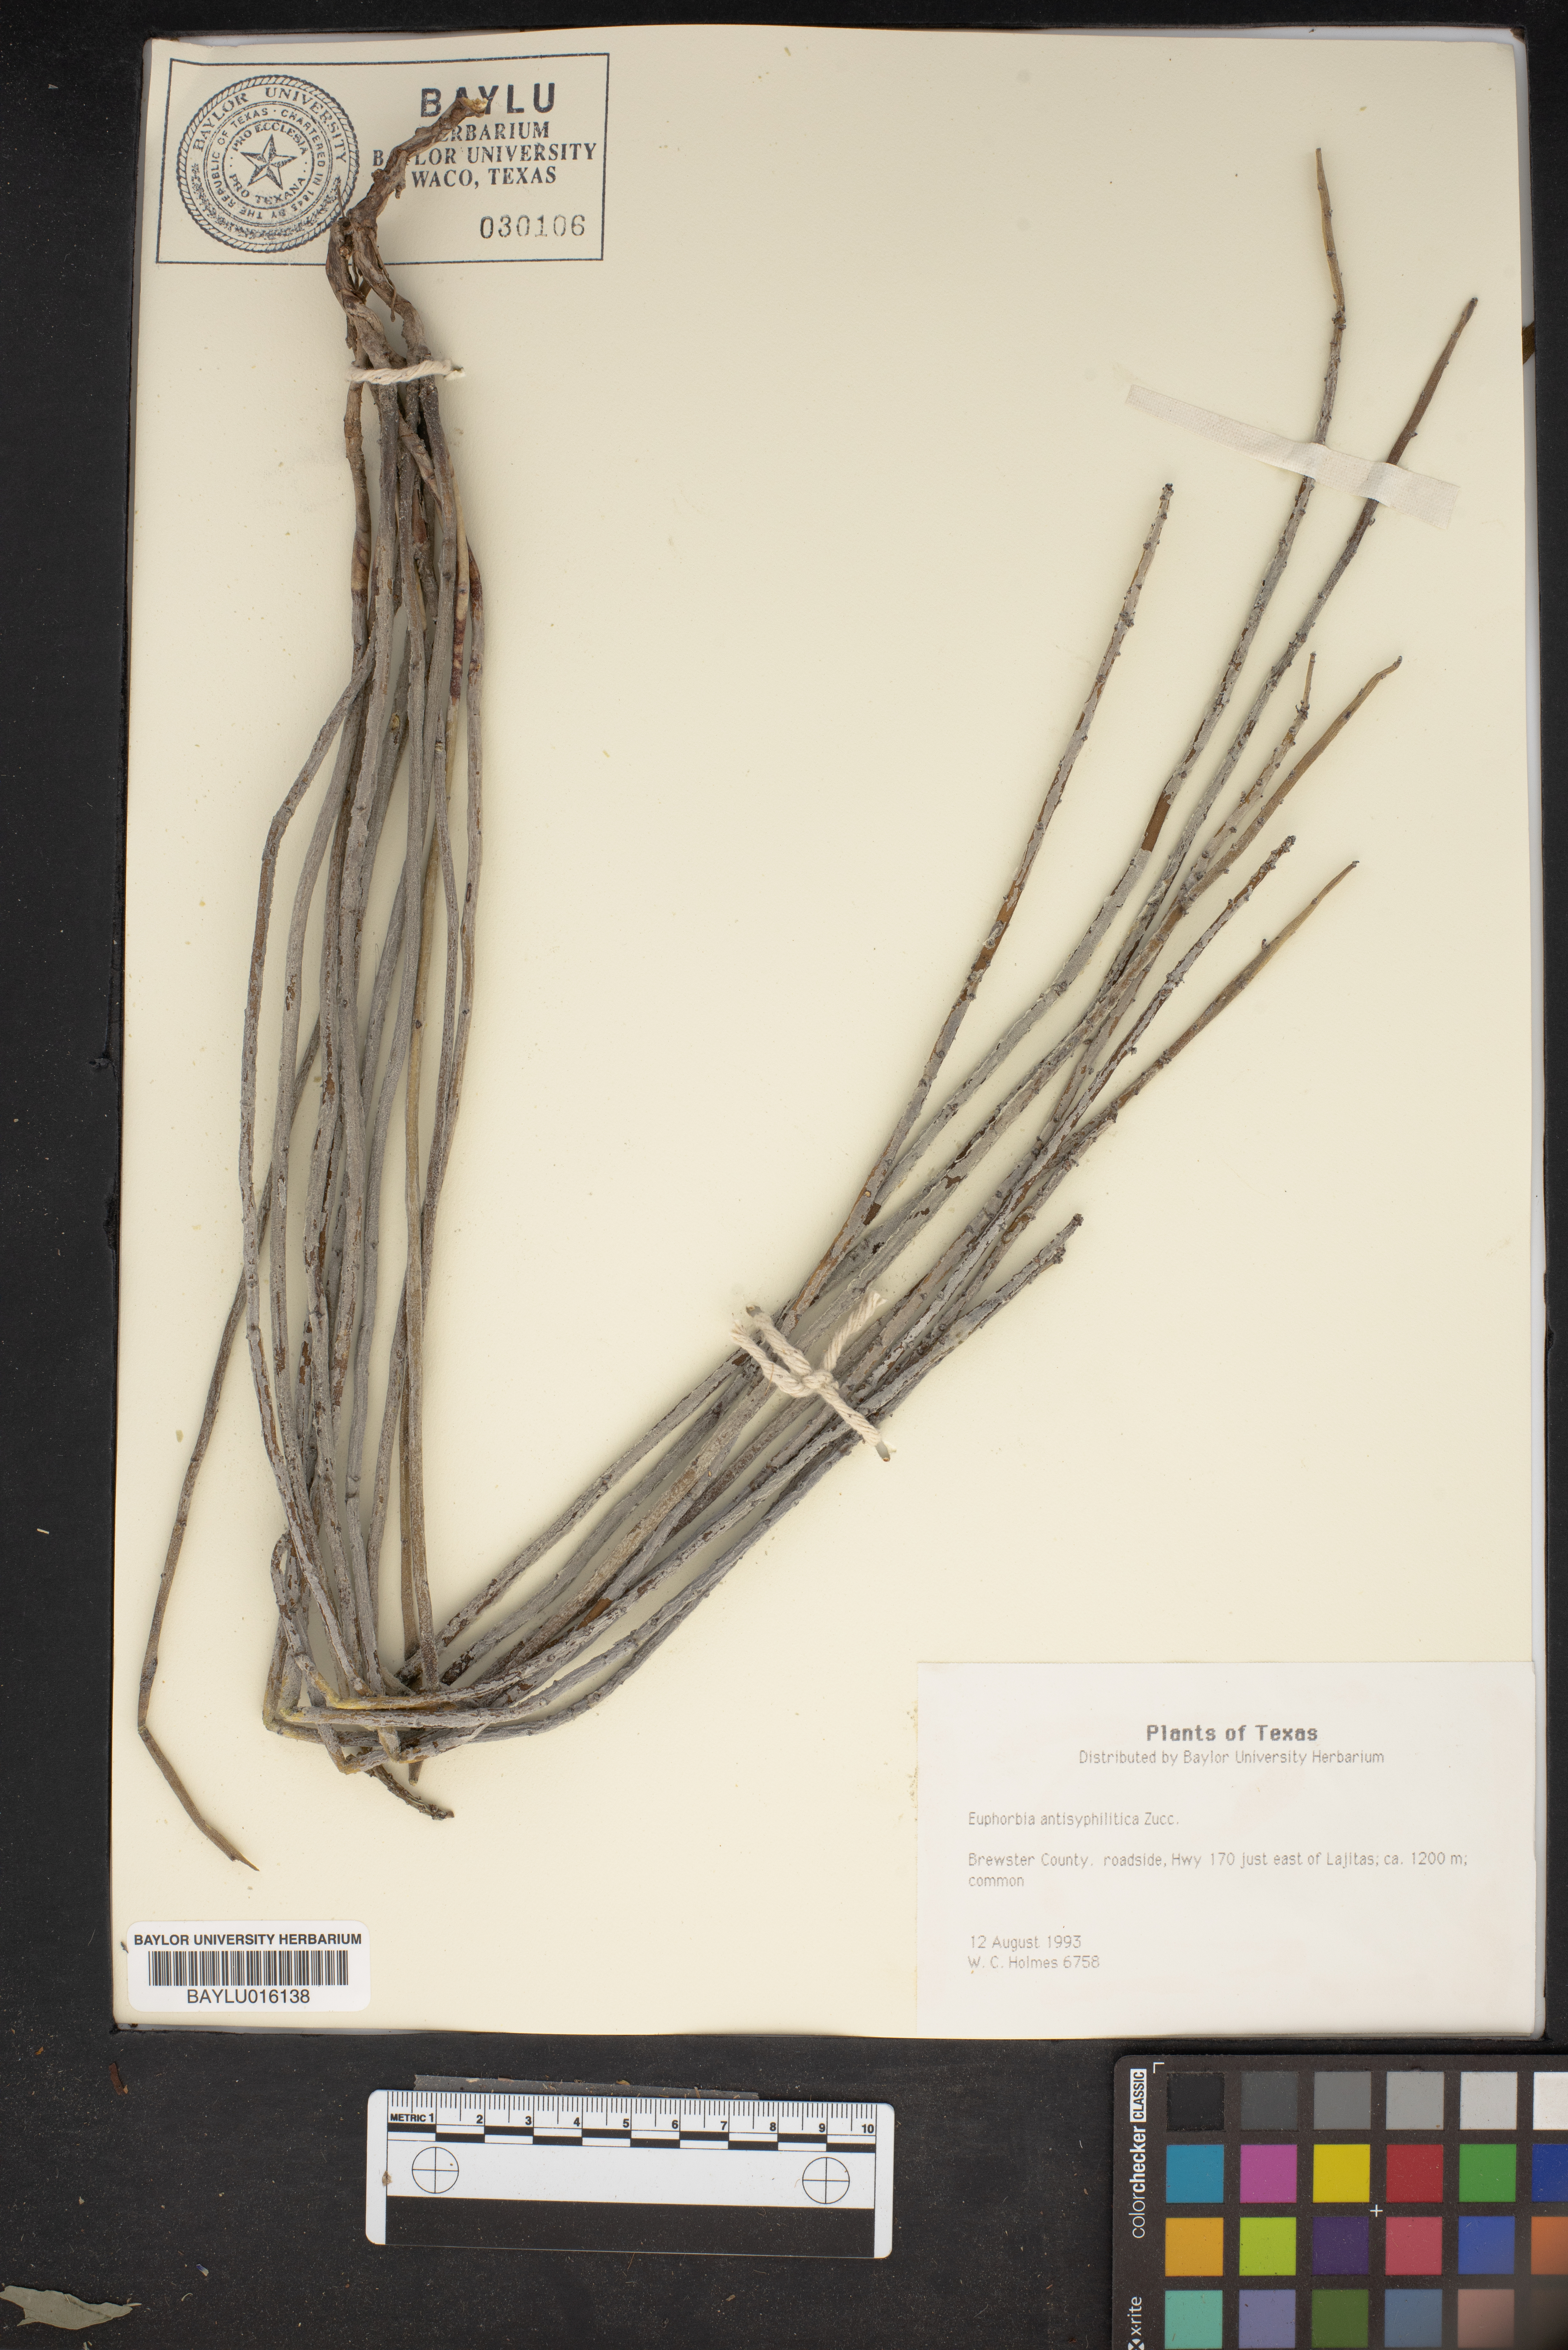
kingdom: Plantae
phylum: Tracheophyta
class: Magnoliopsida
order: Malpighiales
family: Euphorbiaceae
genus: Euphorbia
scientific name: Euphorbia antisyphilitica
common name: Candelilla
